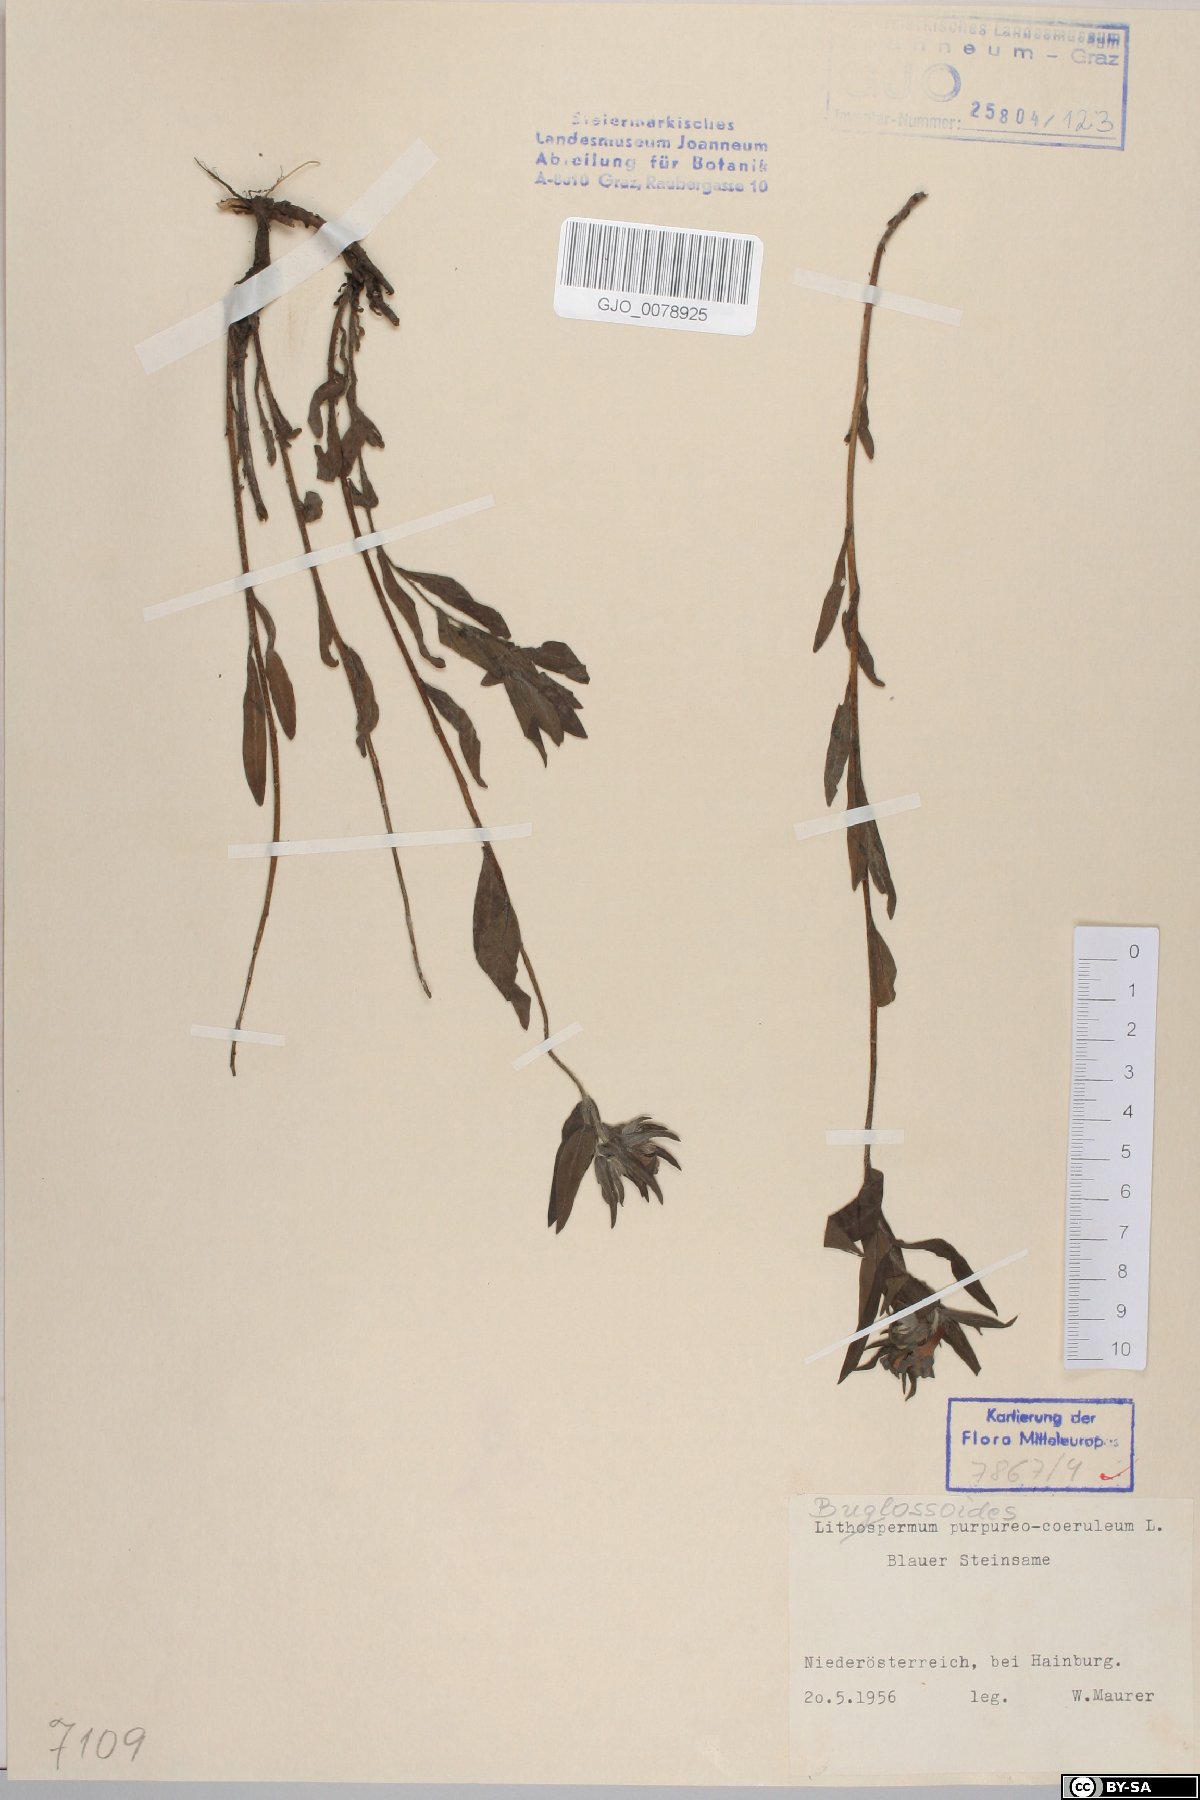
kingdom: Plantae
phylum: Tracheophyta
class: Magnoliopsida
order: Boraginales
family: Boraginaceae
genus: Aegonychon
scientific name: Aegonychon purpurocaeruleum
